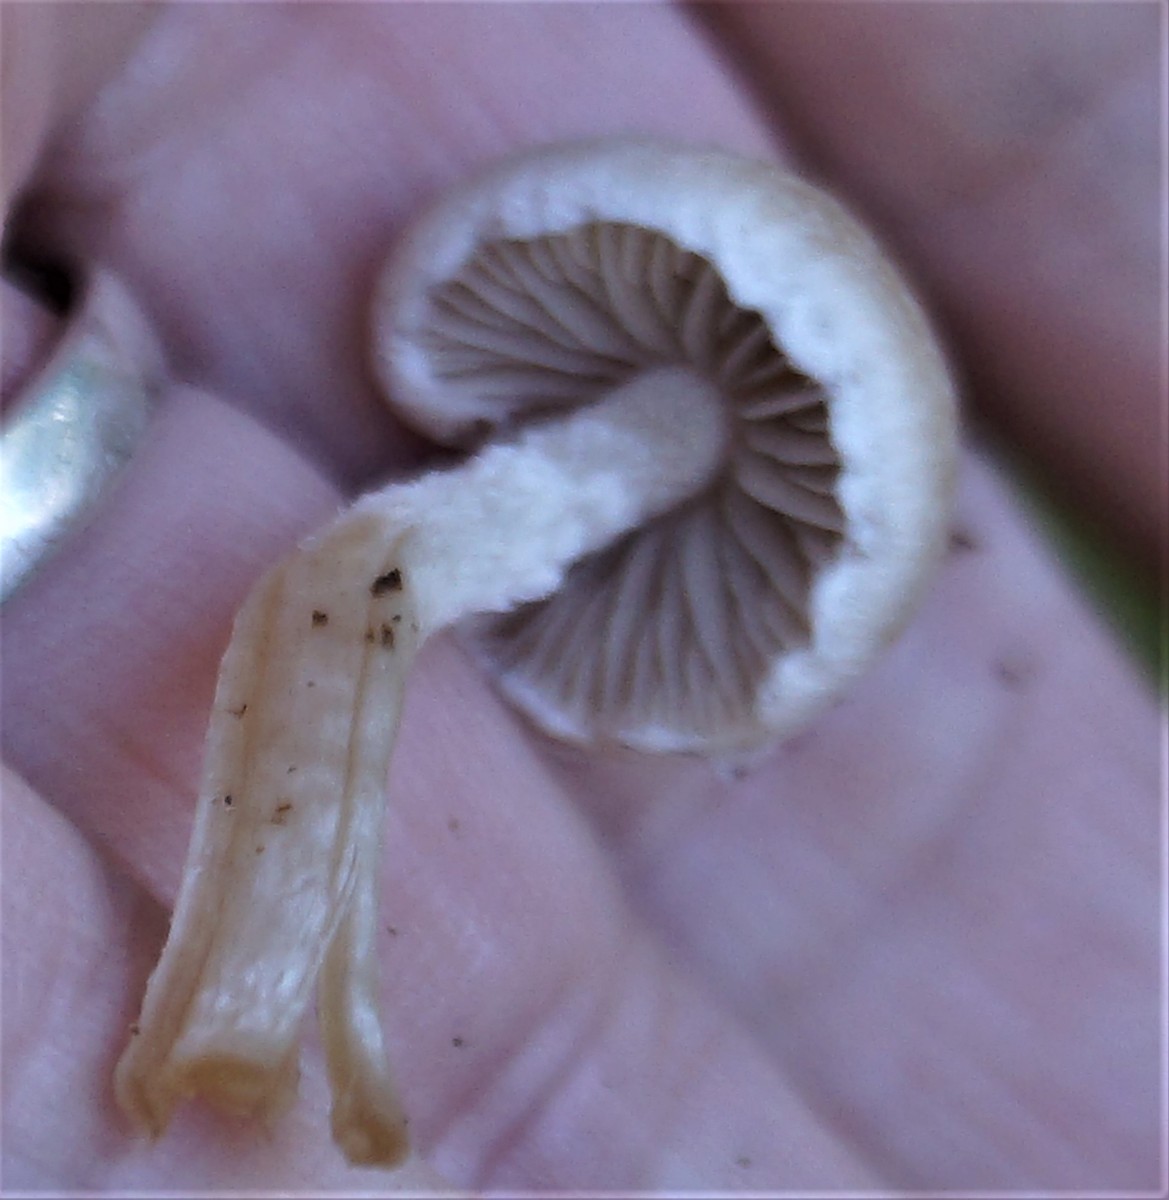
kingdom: Fungi
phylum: Basidiomycota
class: Agaricomycetes
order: Agaricales
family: Psathyrellaceae
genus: Psathyrella
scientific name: Psathyrella
